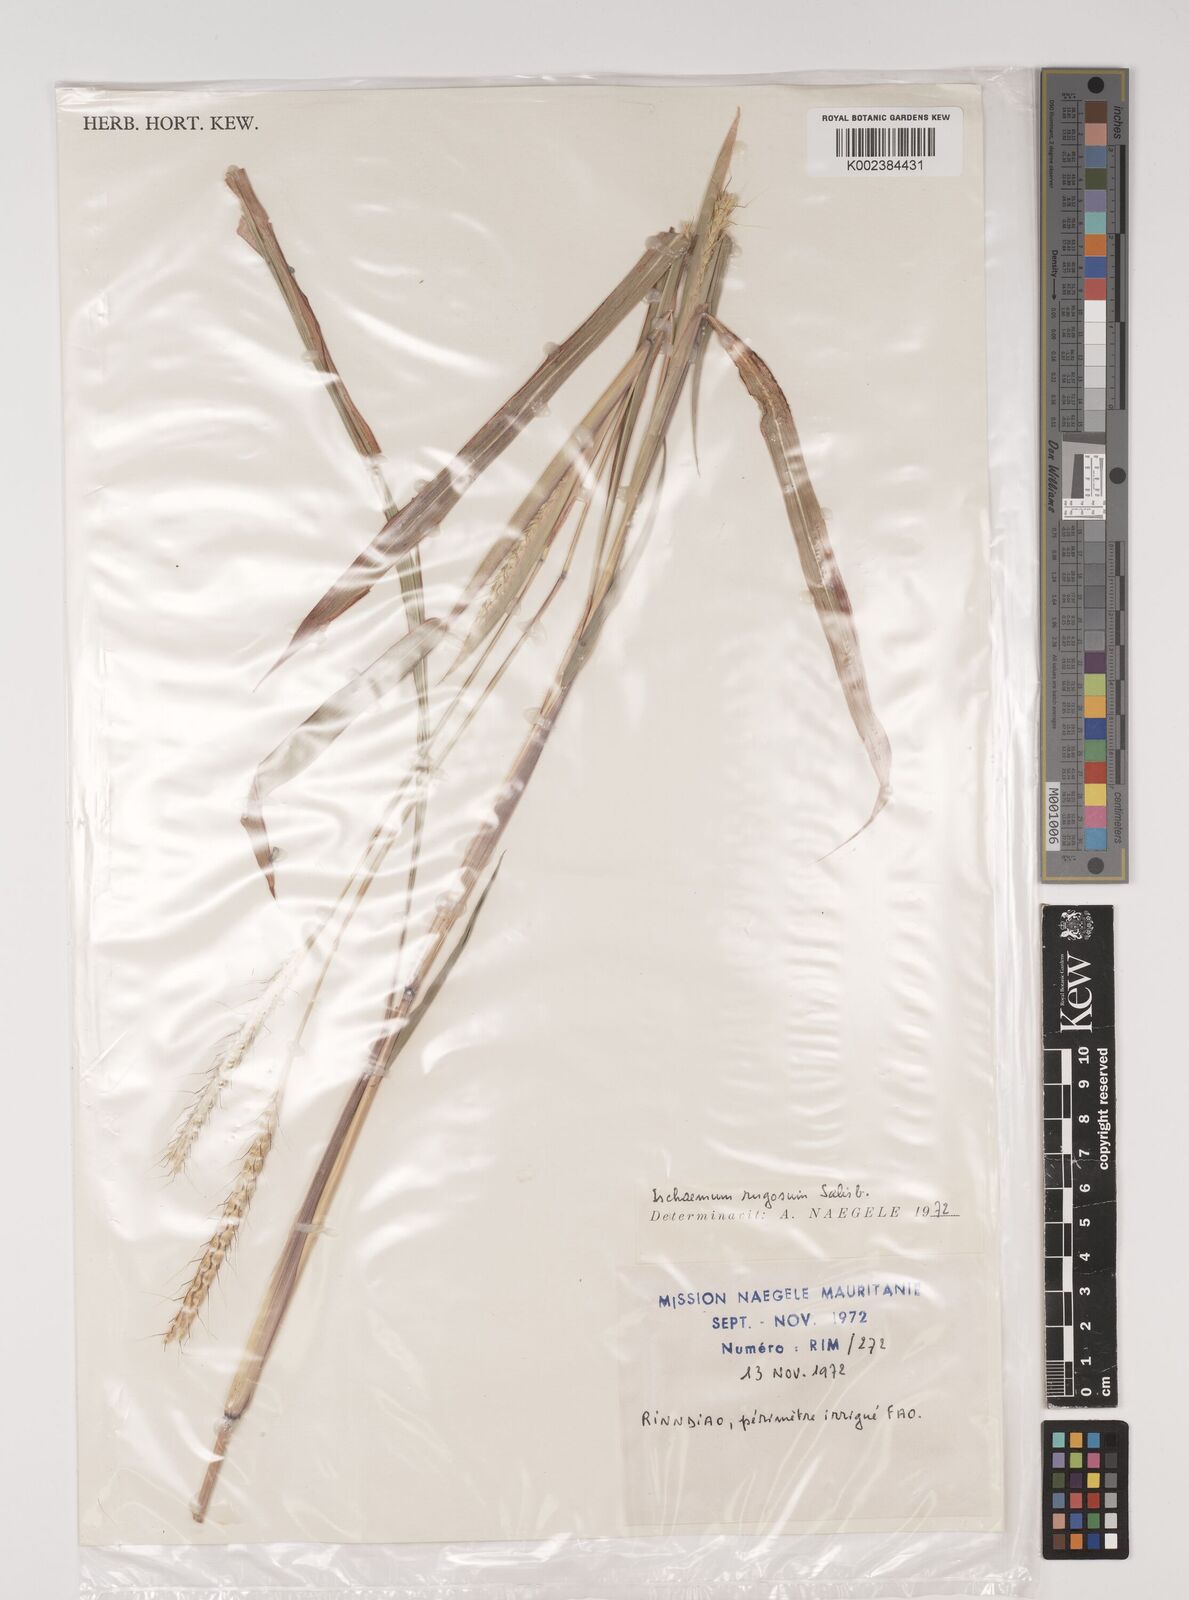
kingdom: Plantae
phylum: Tracheophyta
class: Liliopsida
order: Poales
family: Poaceae
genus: Ischaemum
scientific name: Ischaemum rugosum
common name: Saramatta grass
